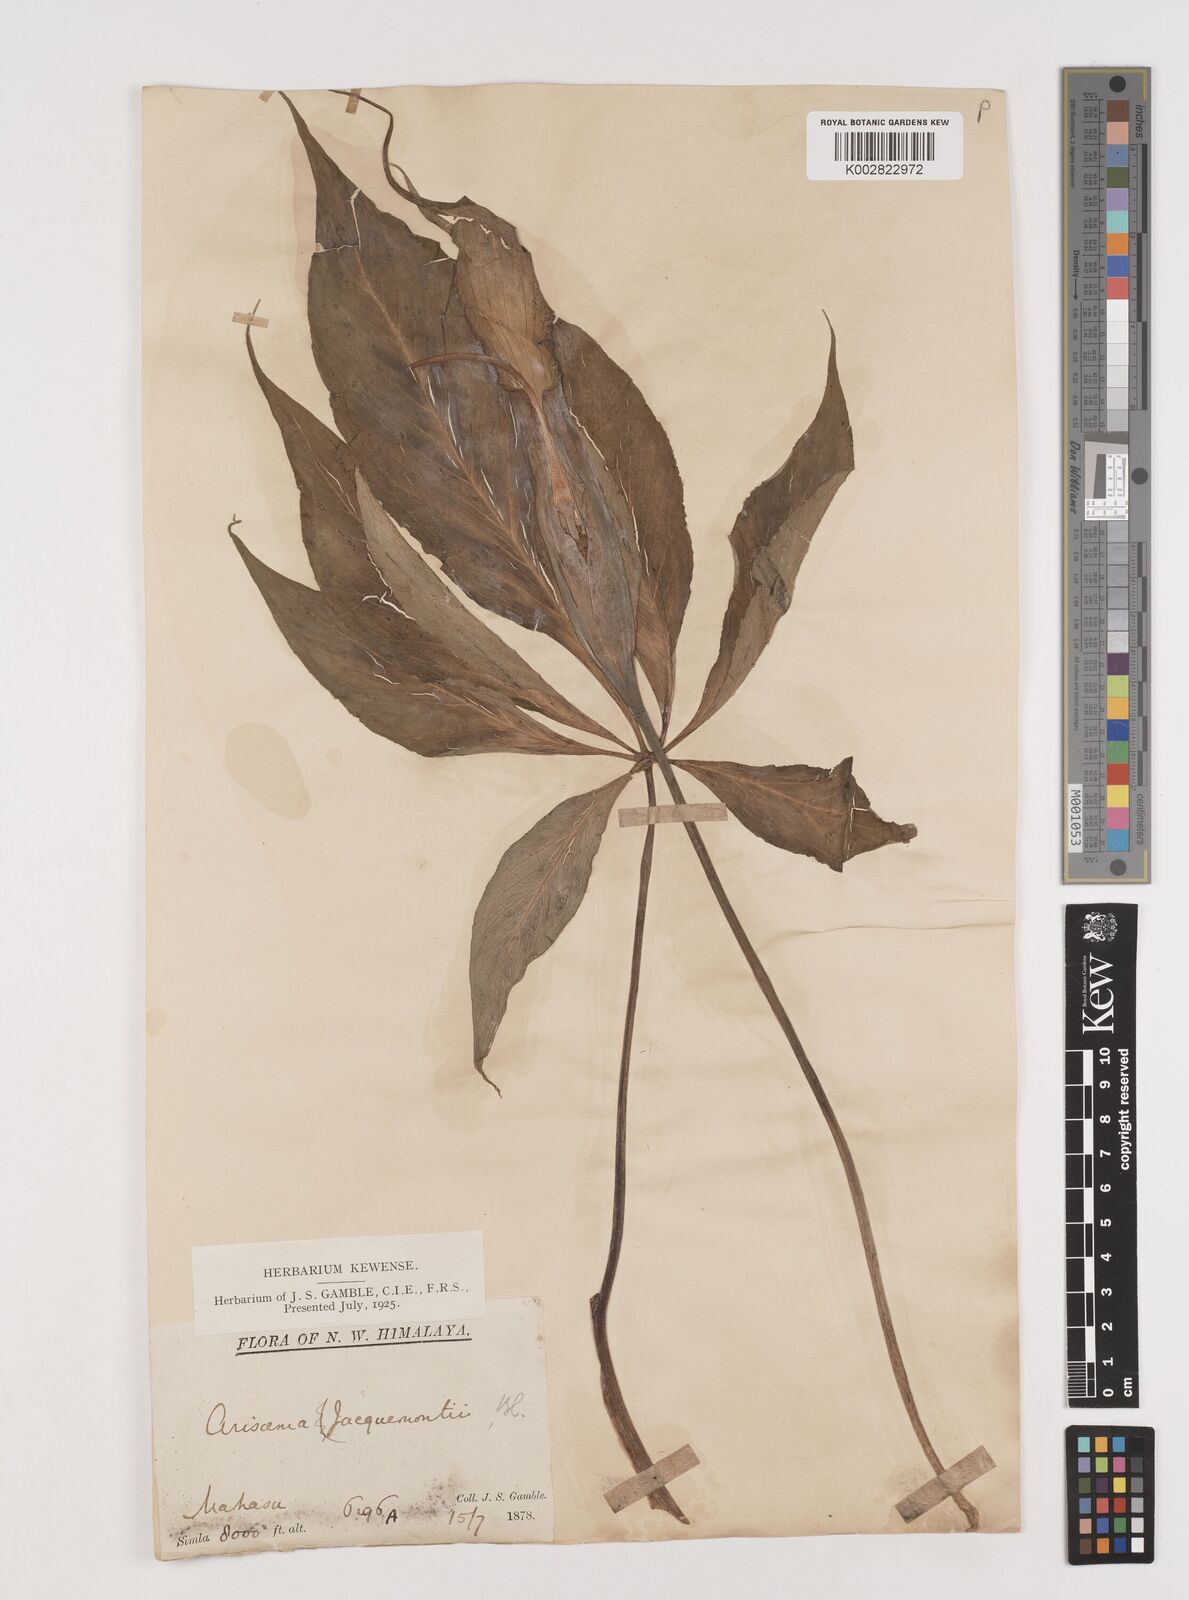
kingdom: Plantae
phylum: Tracheophyta
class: Liliopsida
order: Alismatales
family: Araceae
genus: Arisaema
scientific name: Arisaema jacquemontii
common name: Jacquemont's cobra-lily
